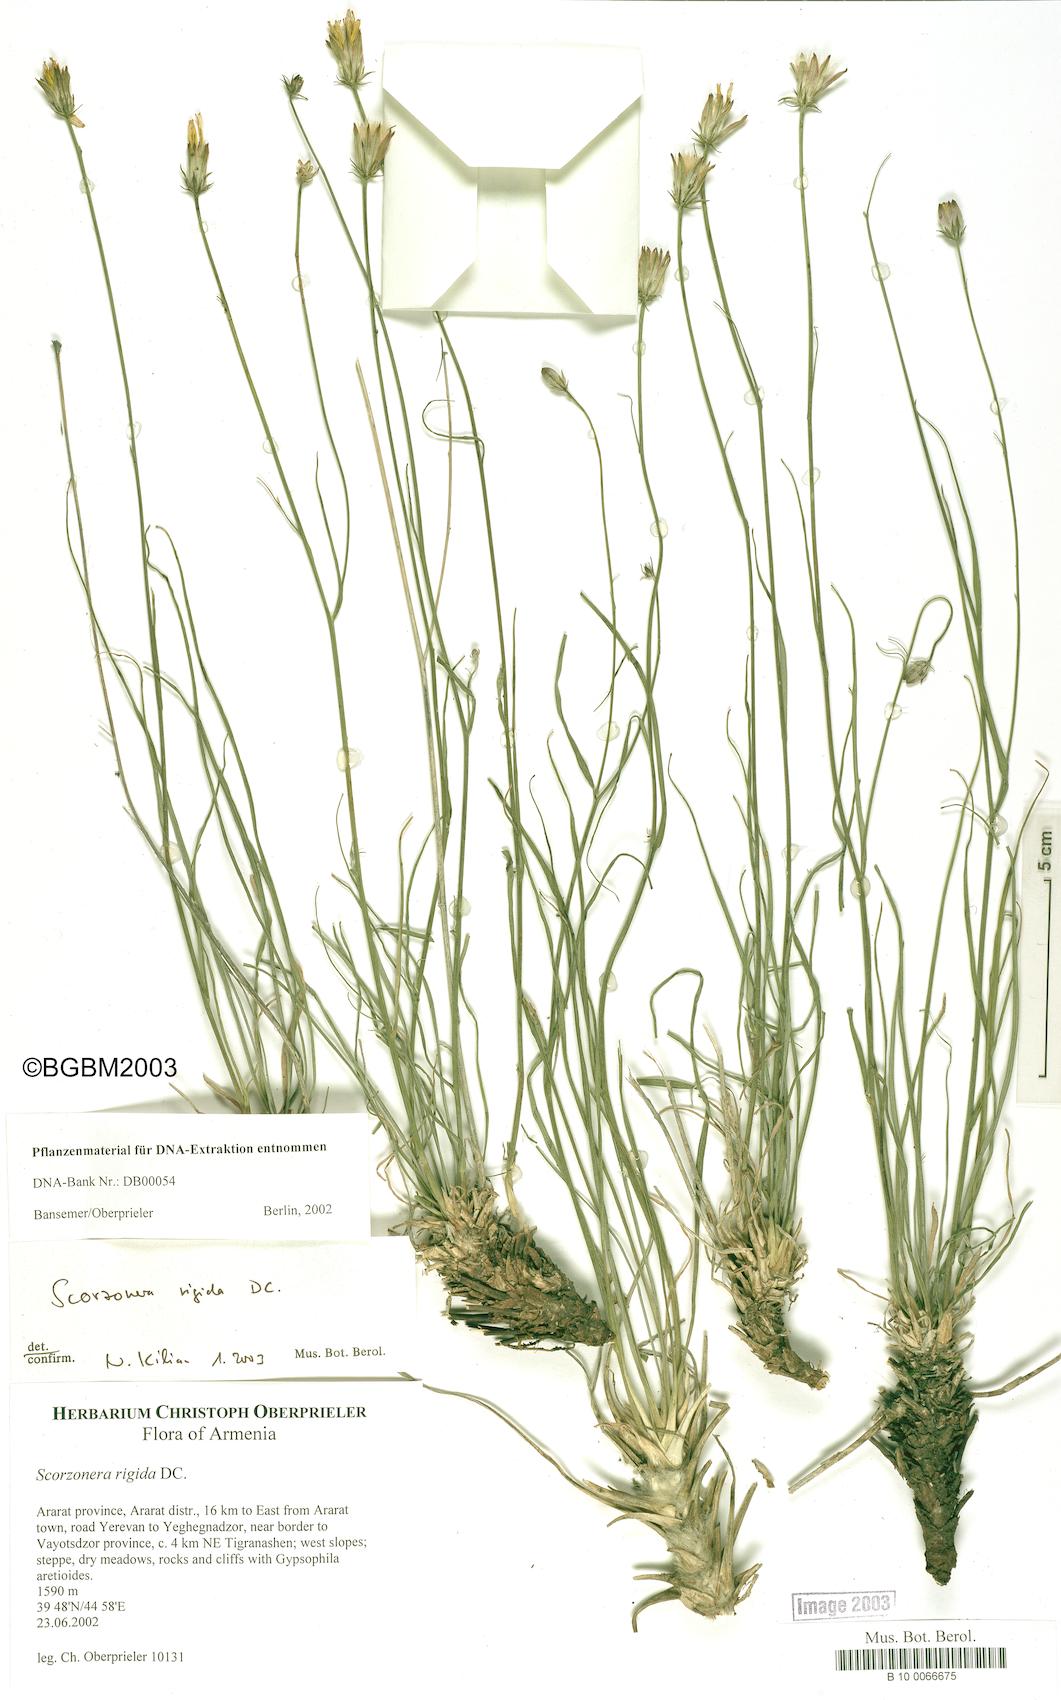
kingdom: Plantae
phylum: Tracheophyta
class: Magnoliopsida
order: Asterales
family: Asteraceae
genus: Goekyighitia
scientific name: Goekyighitia rigida
